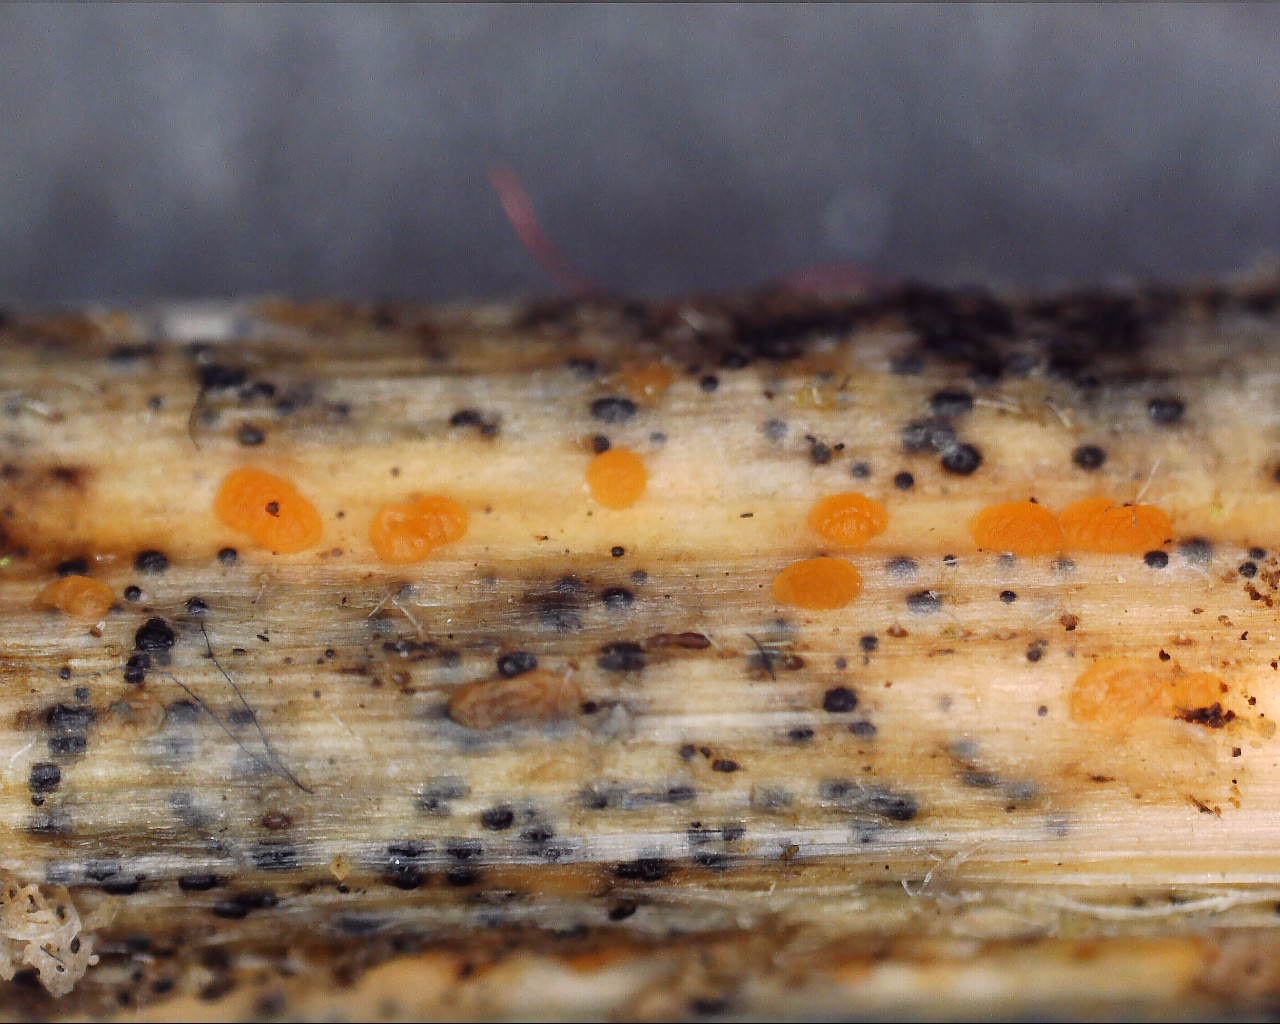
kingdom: Fungi
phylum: Ascomycota
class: Leotiomycetes
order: Helotiales
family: Calloriaceae
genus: Calloria
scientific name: Calloria urticae
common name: nælde-orangeskive
